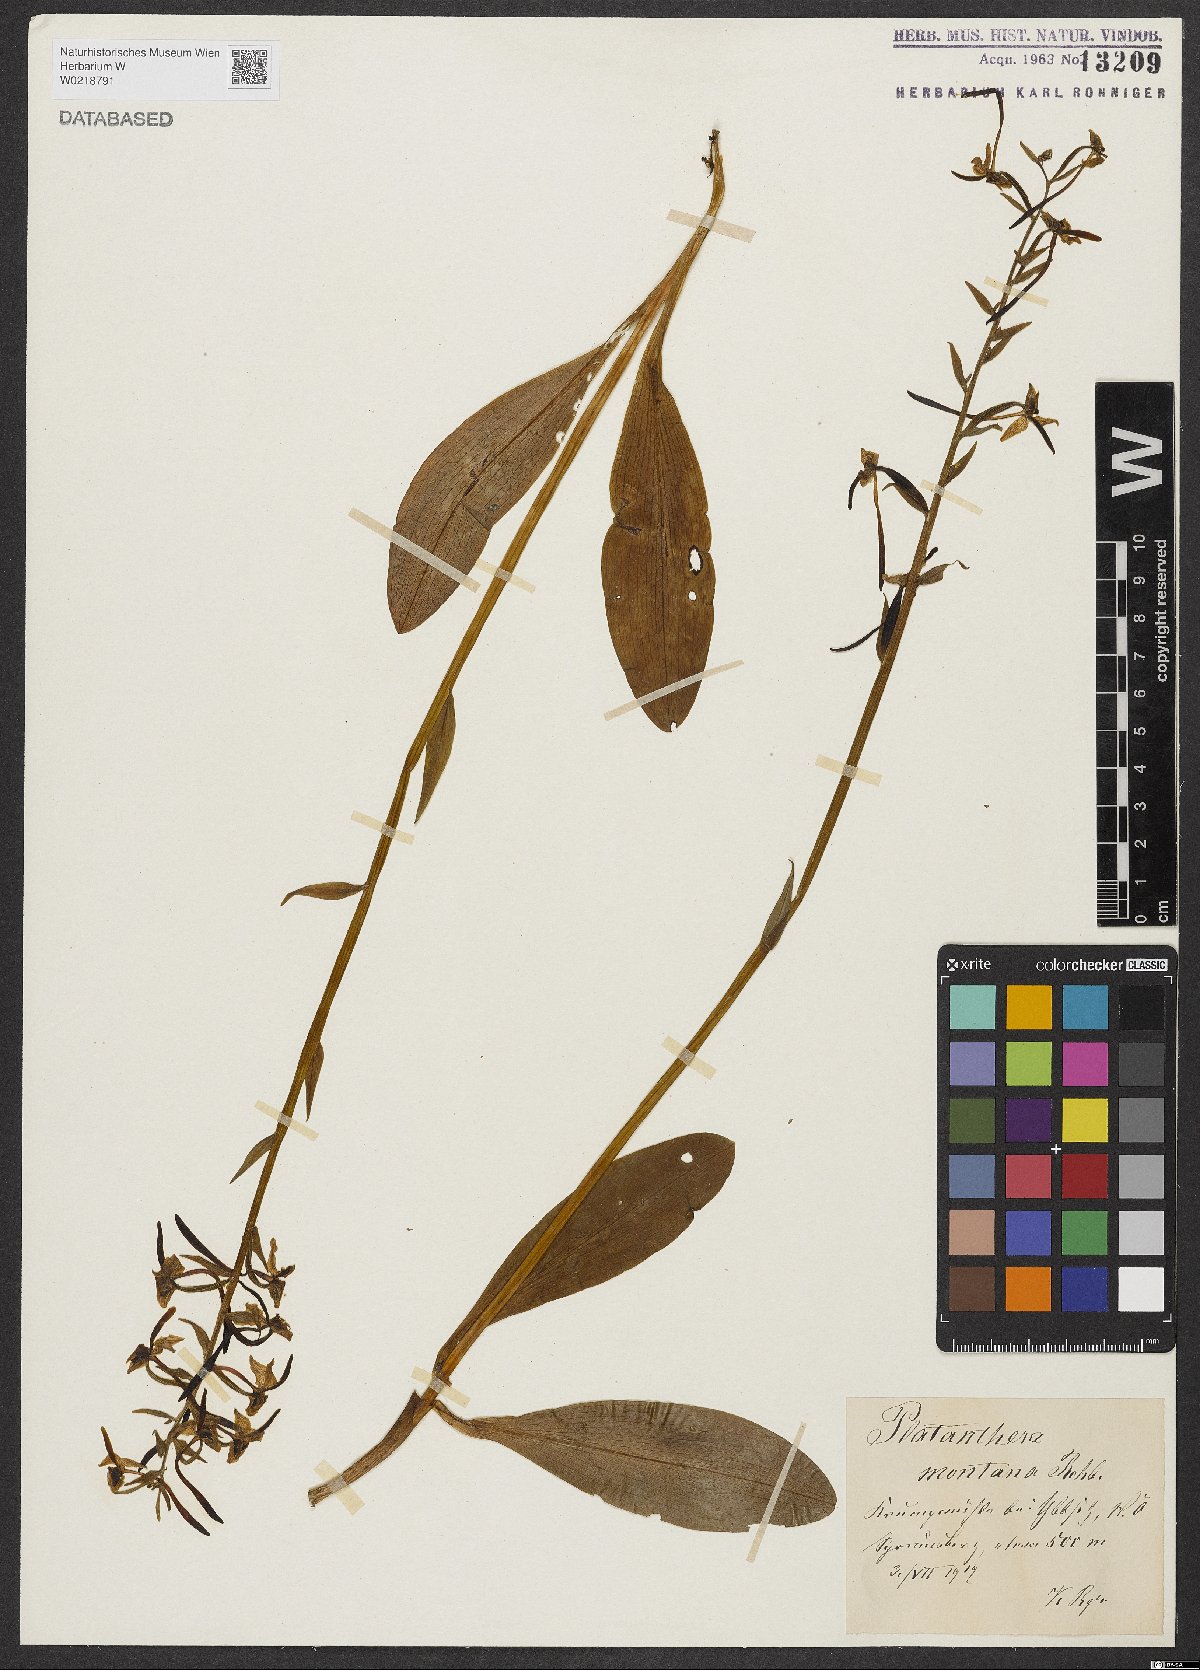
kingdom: Plantae
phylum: Tracheophyta
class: Liliopsida
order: Asparagales
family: Orchidaceae
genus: Platanthera
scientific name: Platanthera chlorantha
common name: Greater butterfly-orchid
